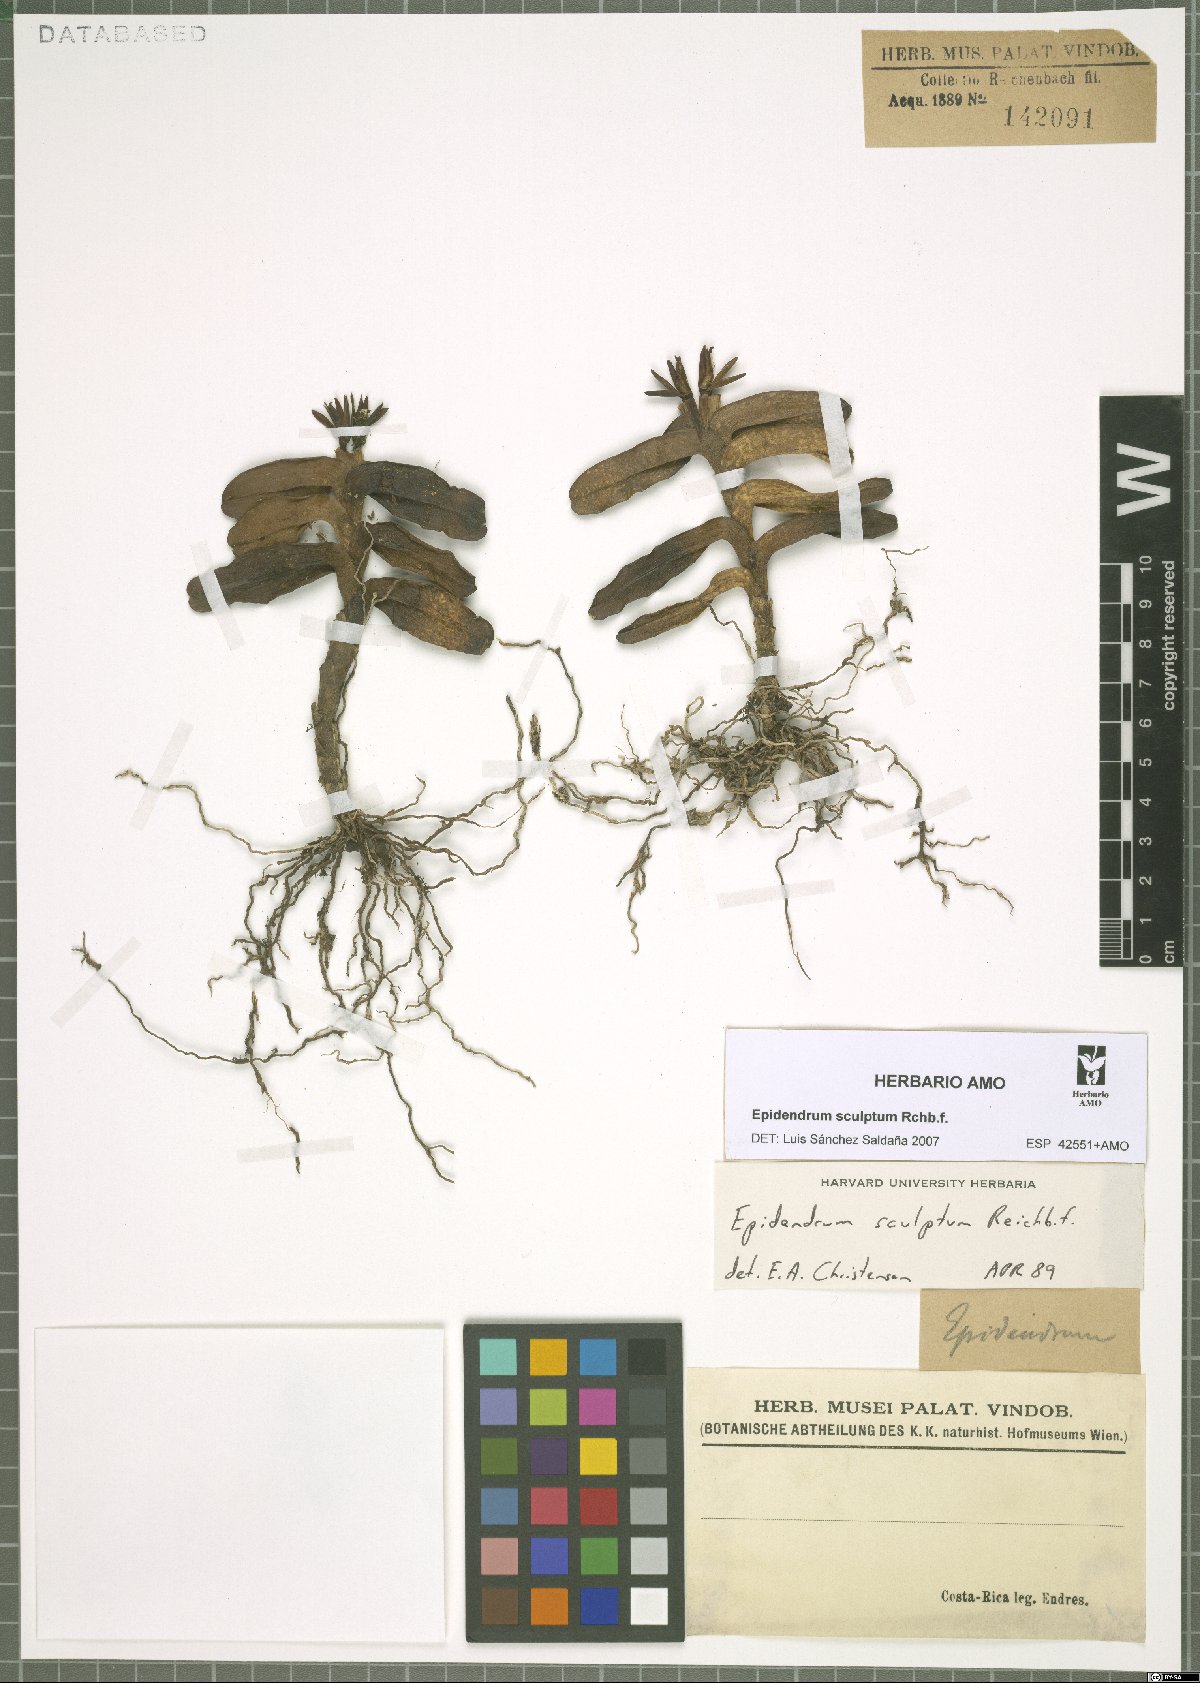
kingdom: Plantae
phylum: Tracheophyta
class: Liliopsida
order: Asparagales
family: Orchidaceae
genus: Epidendrum
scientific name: Epidendrum sculptum
